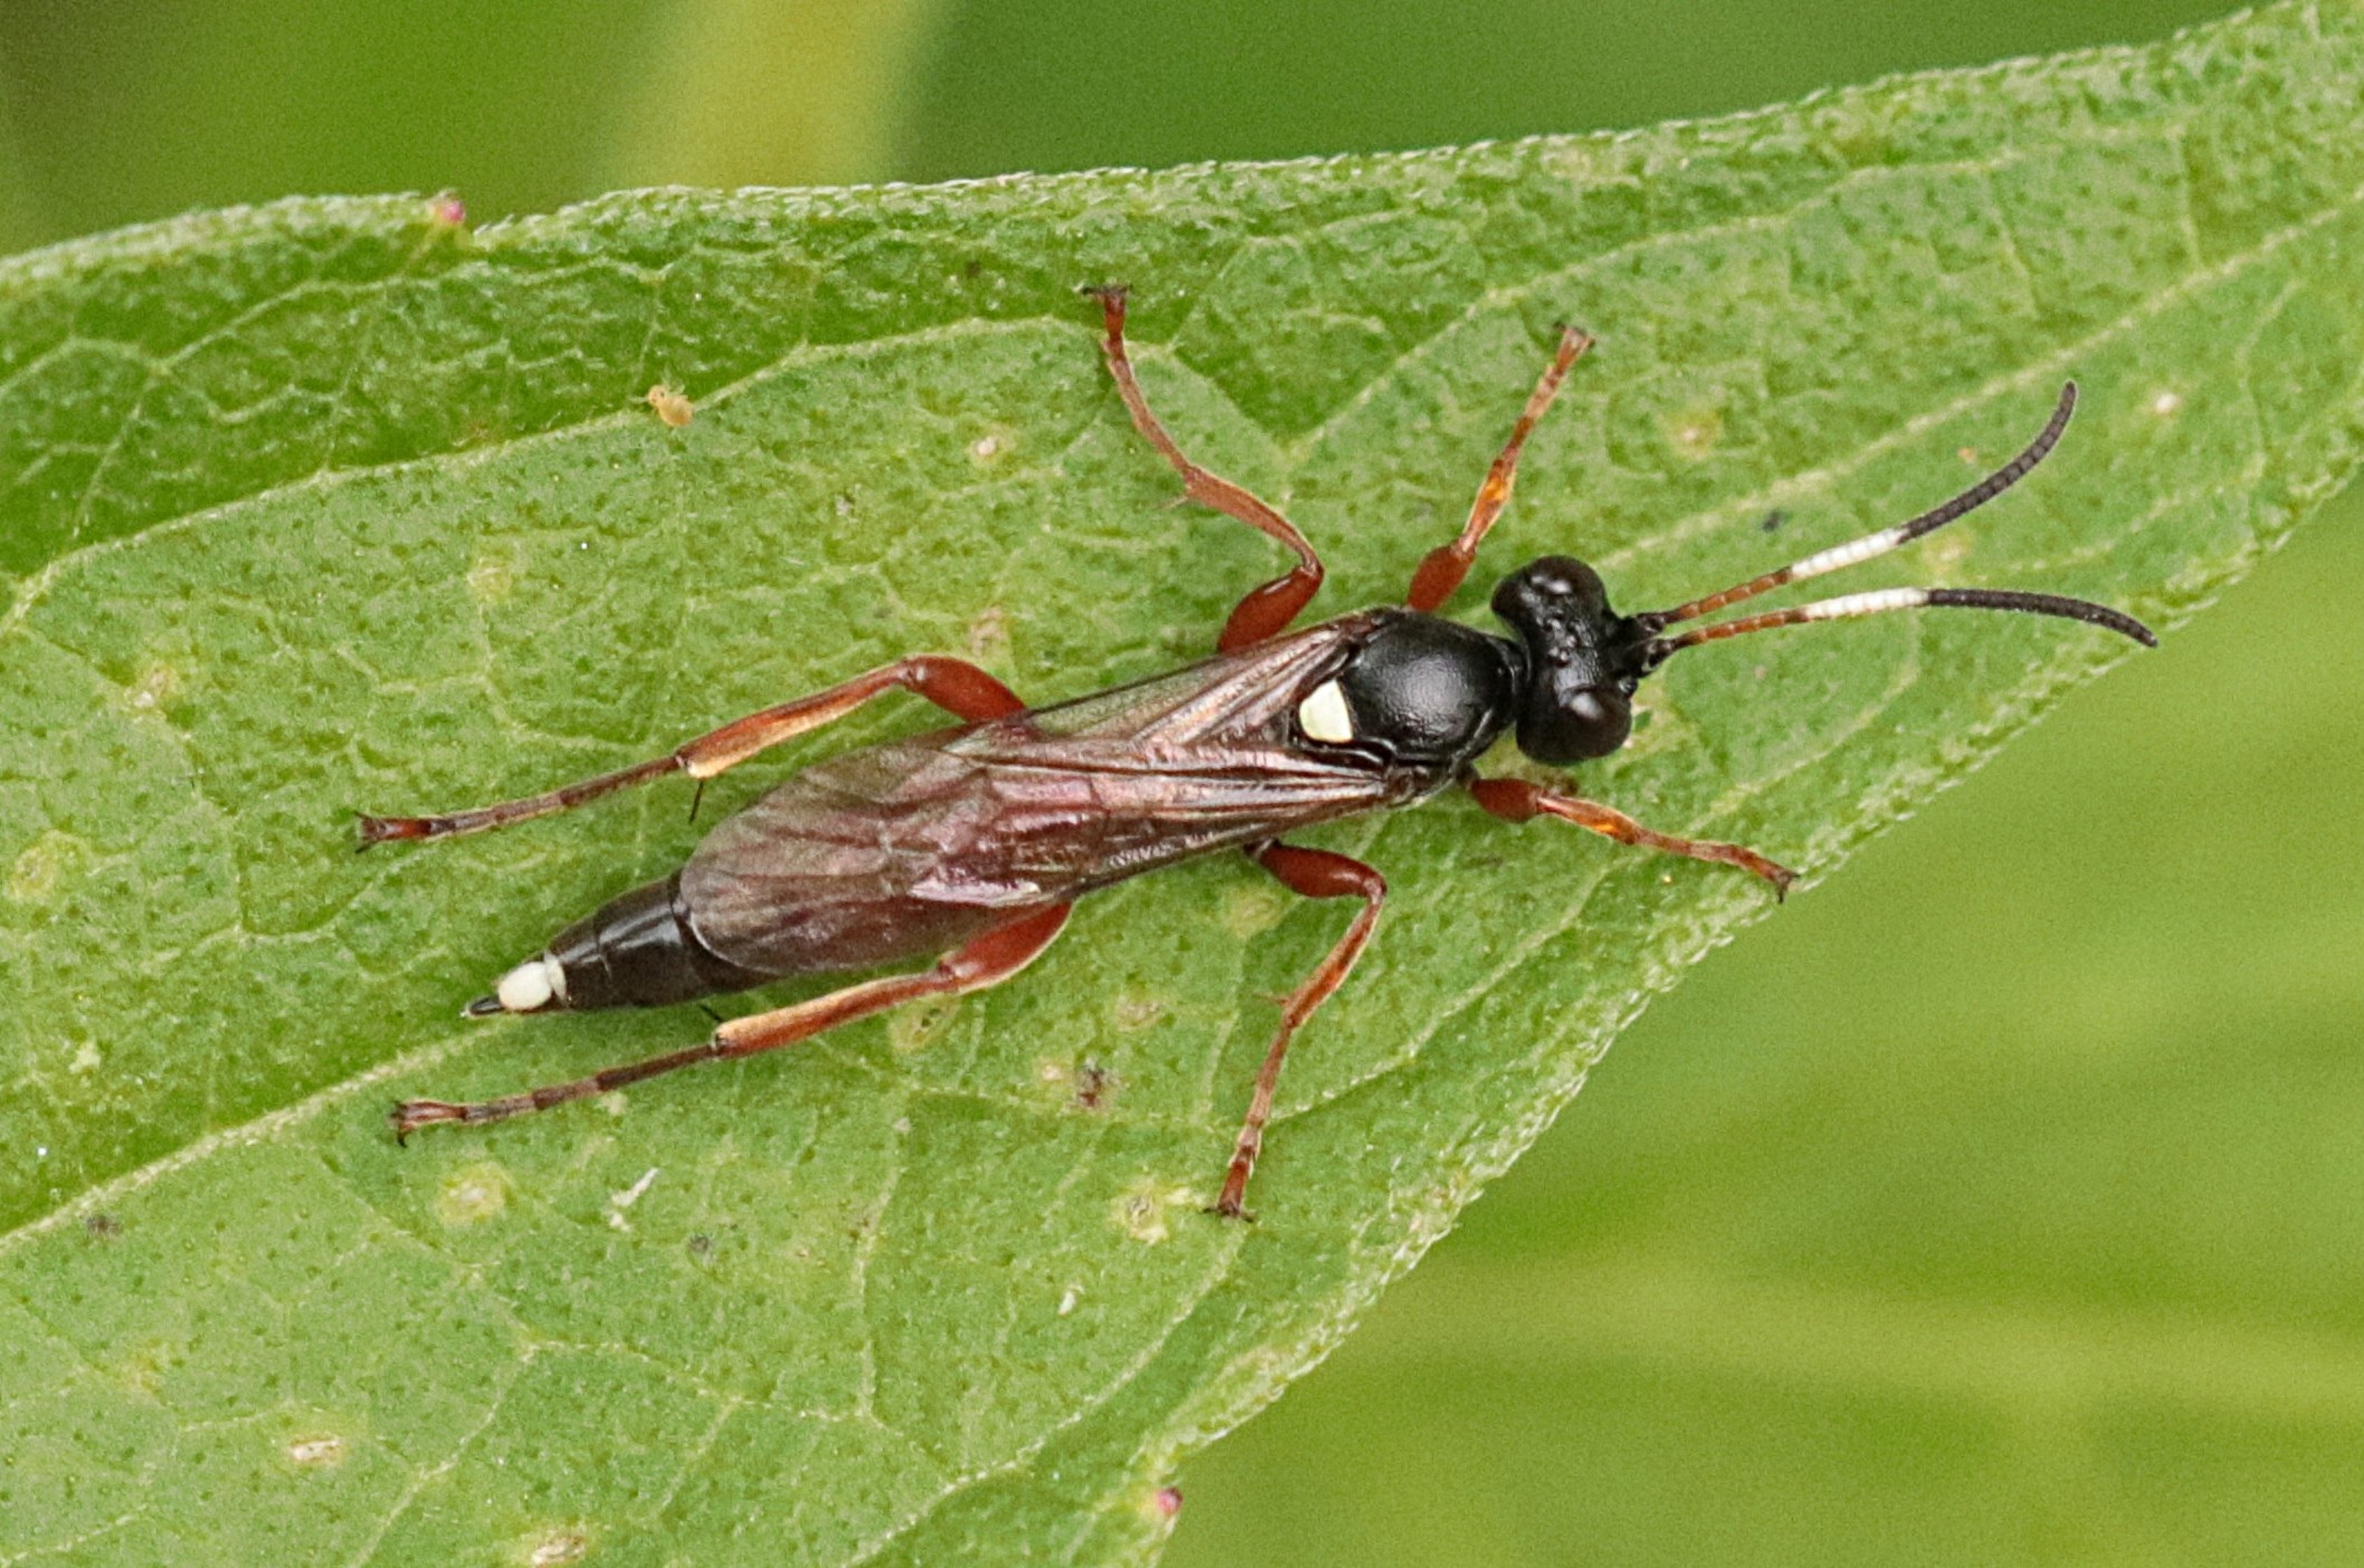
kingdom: Animalia
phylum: Arthropoda
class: Insecta
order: Hymenoptera
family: Ichneumonidae
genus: Chasmias
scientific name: Chasmias motatorius
